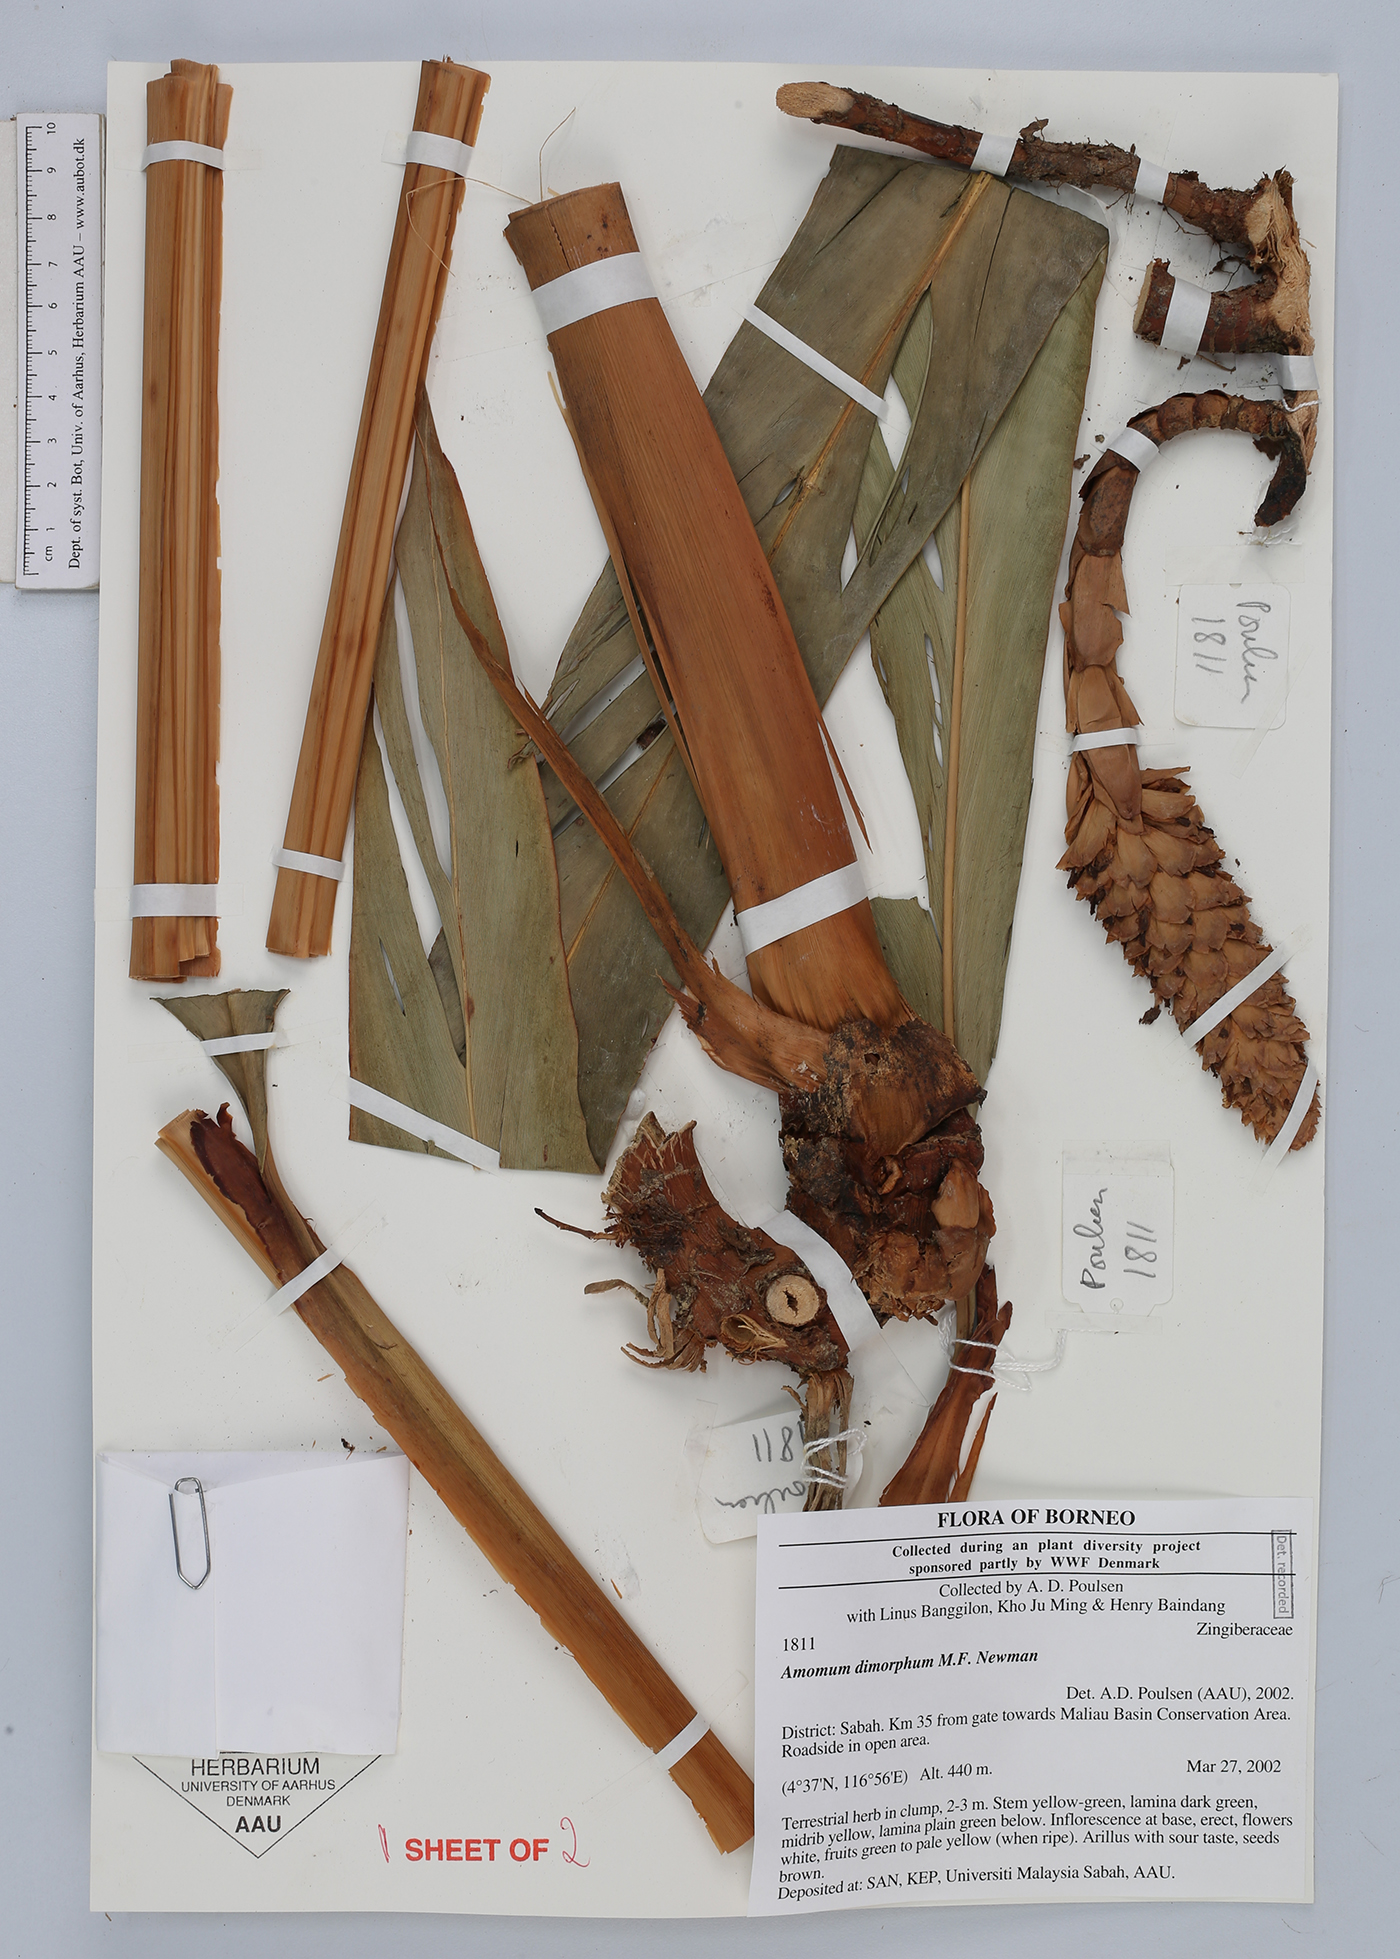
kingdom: Plantae
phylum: Tracheophyta
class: Liliopsida
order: Zingiberales
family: Zingiberaceae
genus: Sulettaria
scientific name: Sulettaria polycarpa
